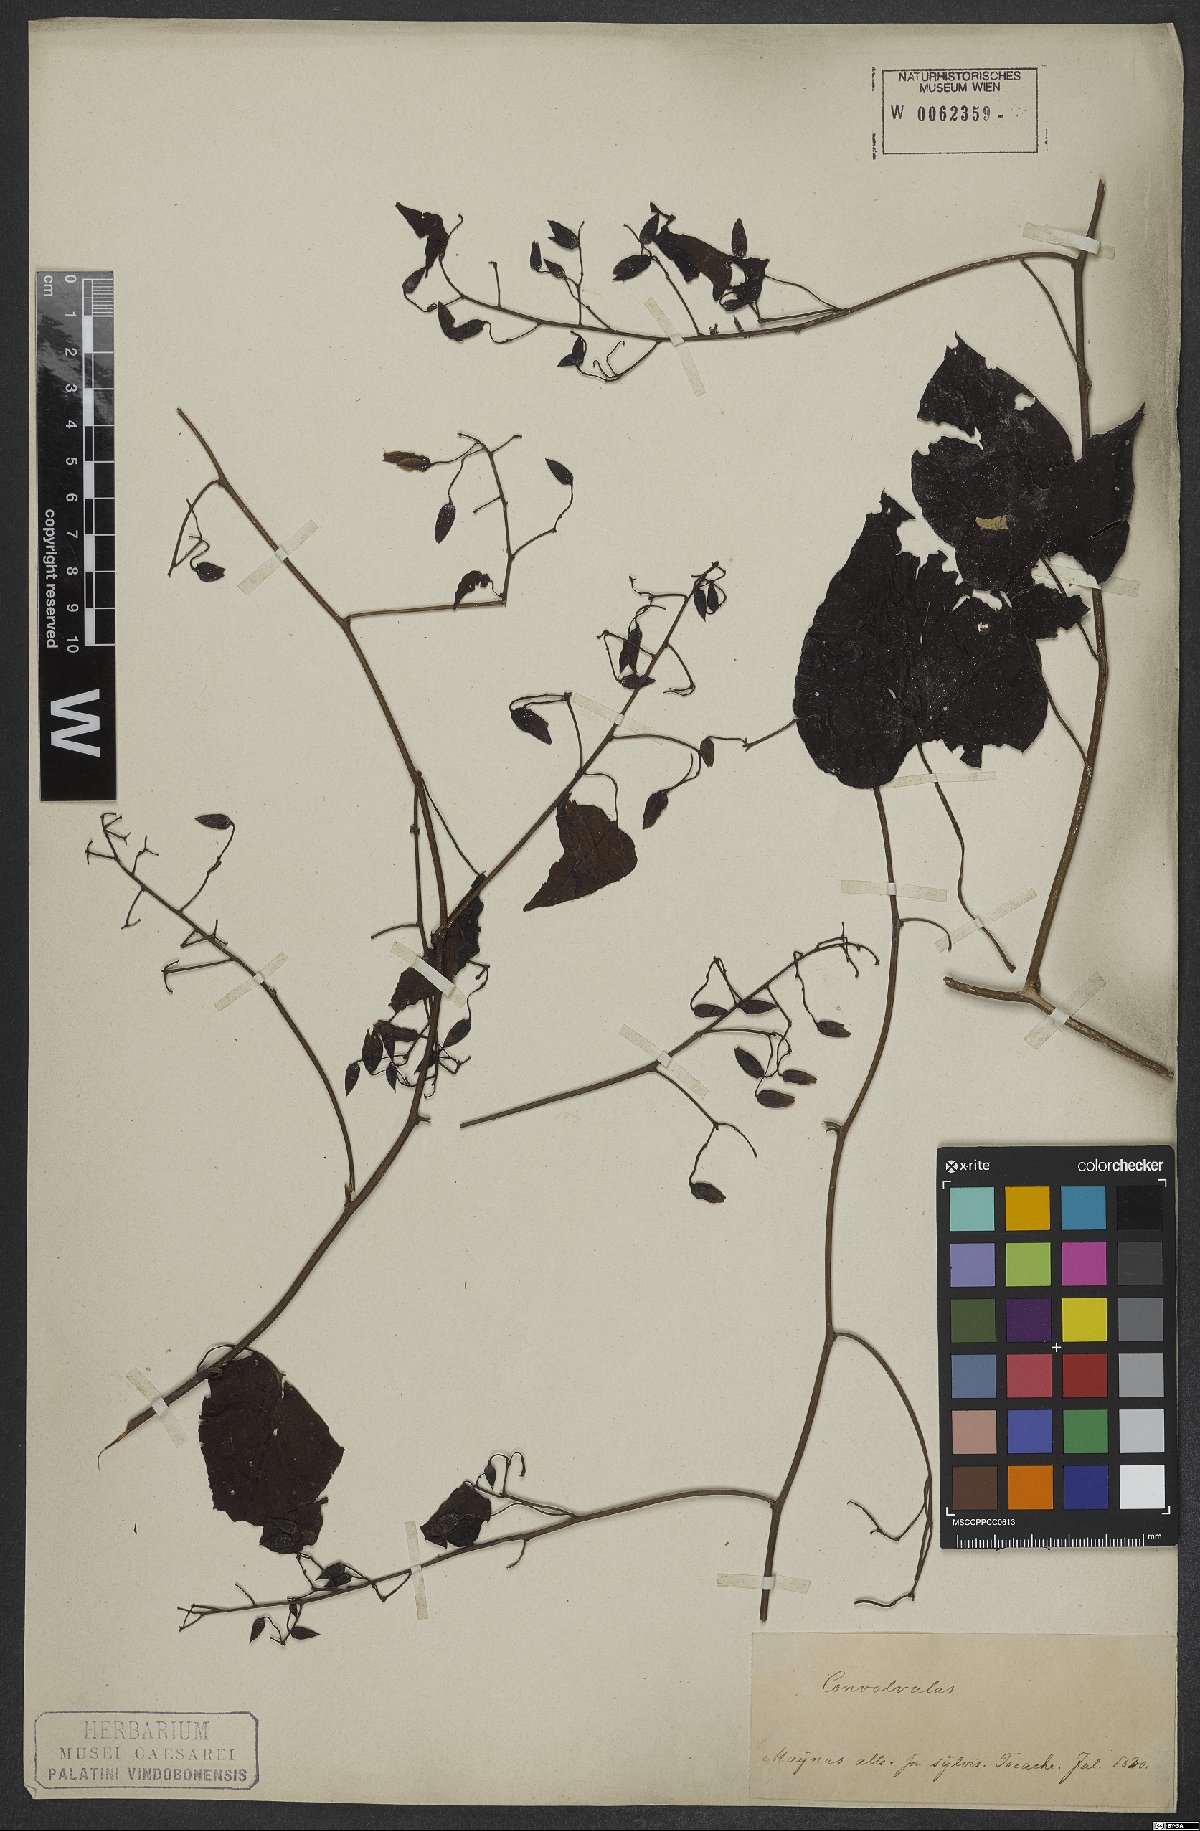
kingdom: Plantae
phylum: Tracheophyta
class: Magnoliopsida
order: Solanales
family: Convolvulaceae
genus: Ipomoea
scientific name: Ipomoea corymbosa
